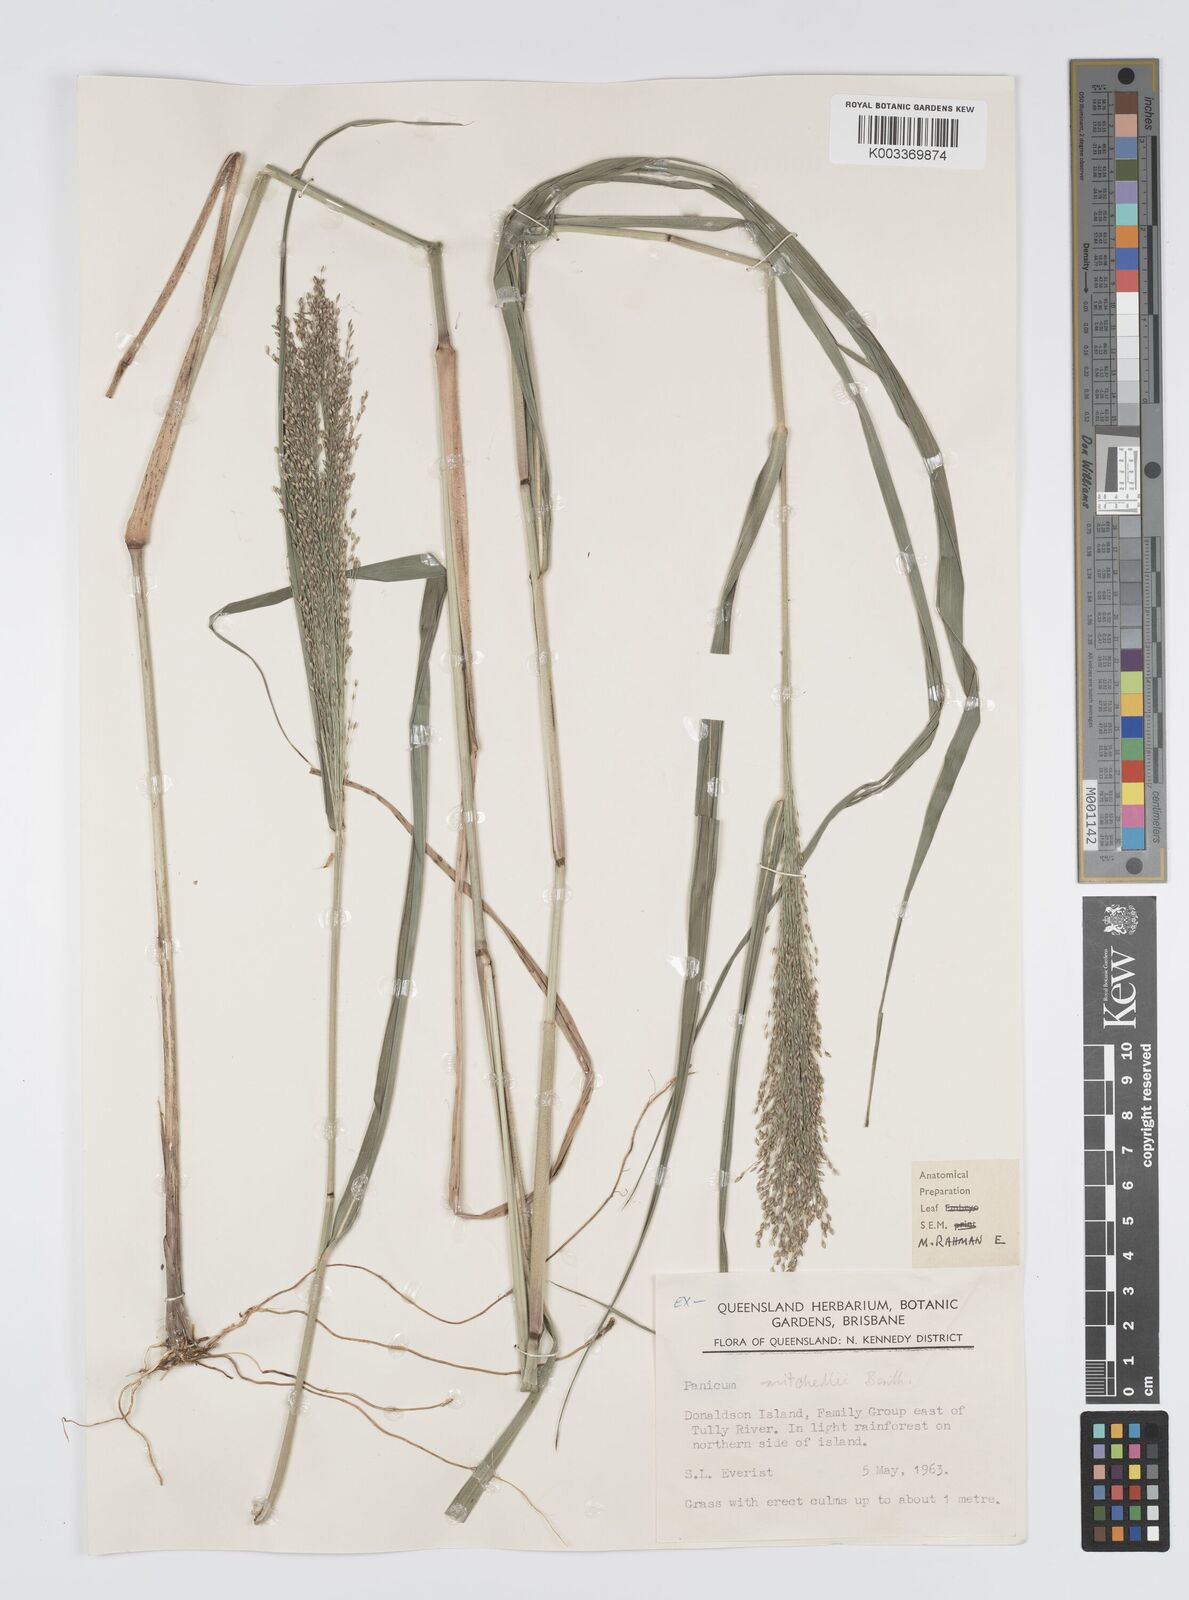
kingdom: Plantae
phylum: Tracheophyta
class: Liliopsida
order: Poales
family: Poaceae
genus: Panicum
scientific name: Panicum mitchellii
